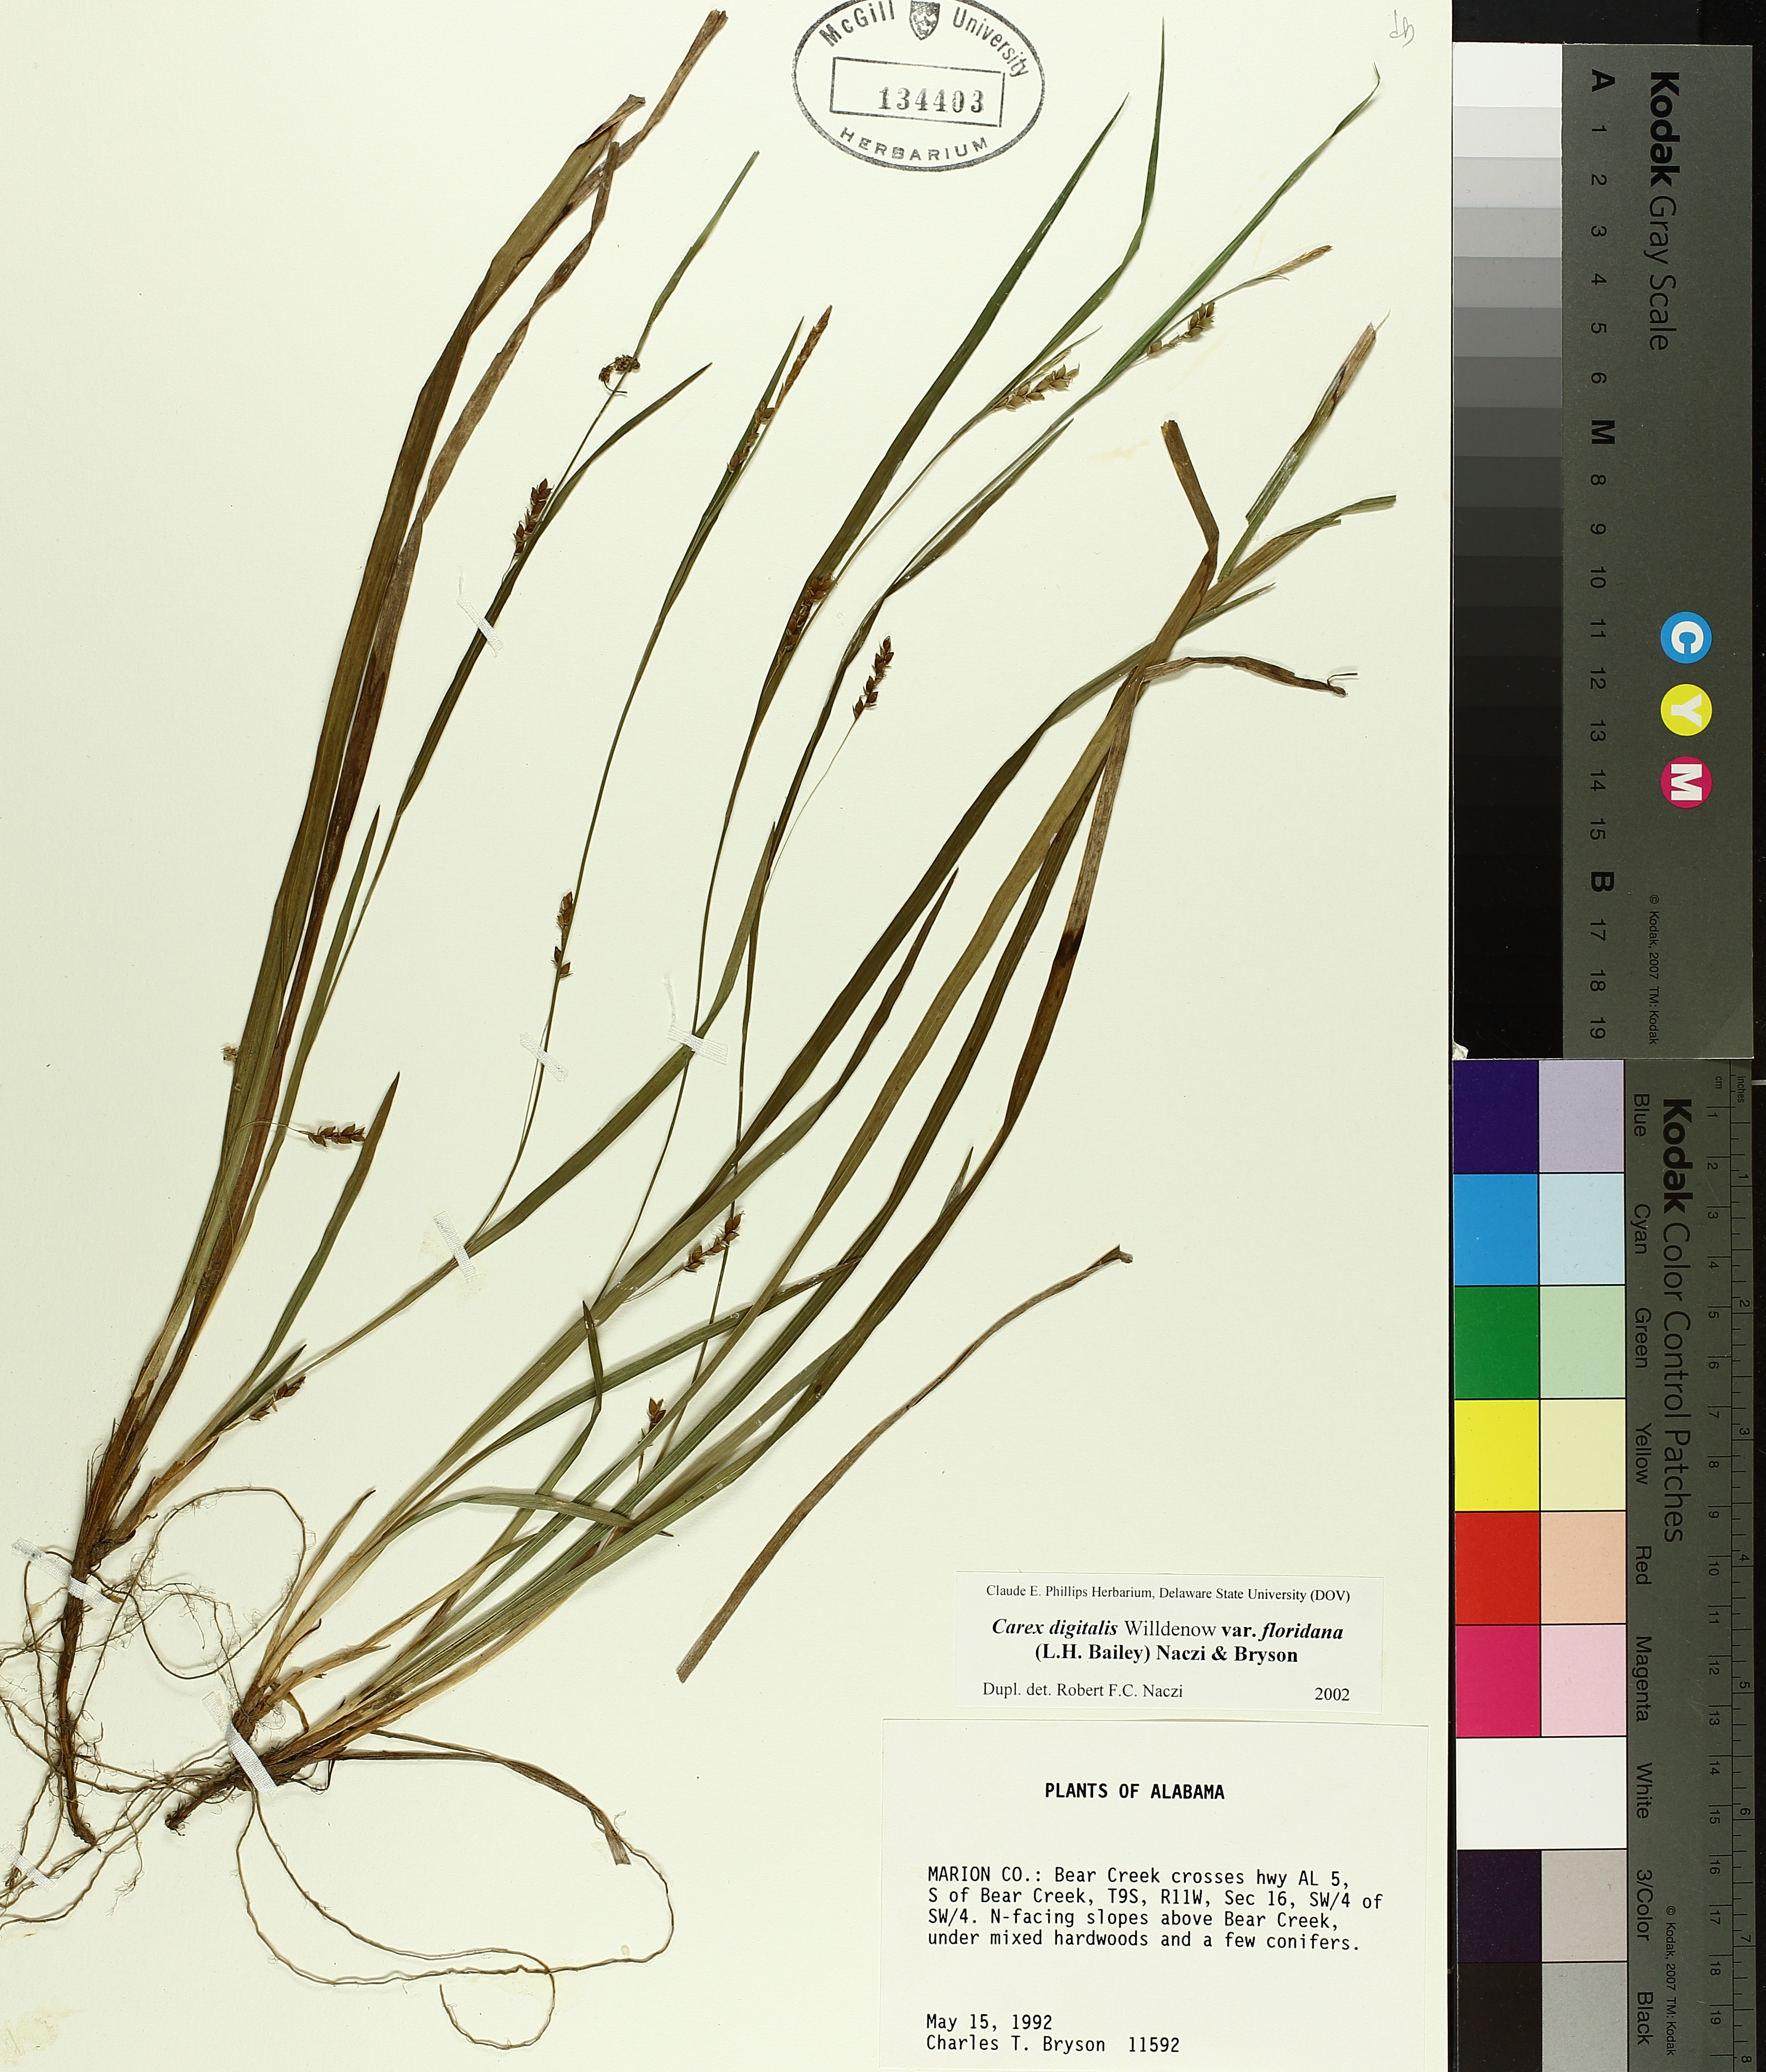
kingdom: Plantae
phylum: Tracheophyta
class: Liliopsida
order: Poales
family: Cyperaceae
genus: Carex
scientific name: Carex digitalis
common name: Slender wood sedge
